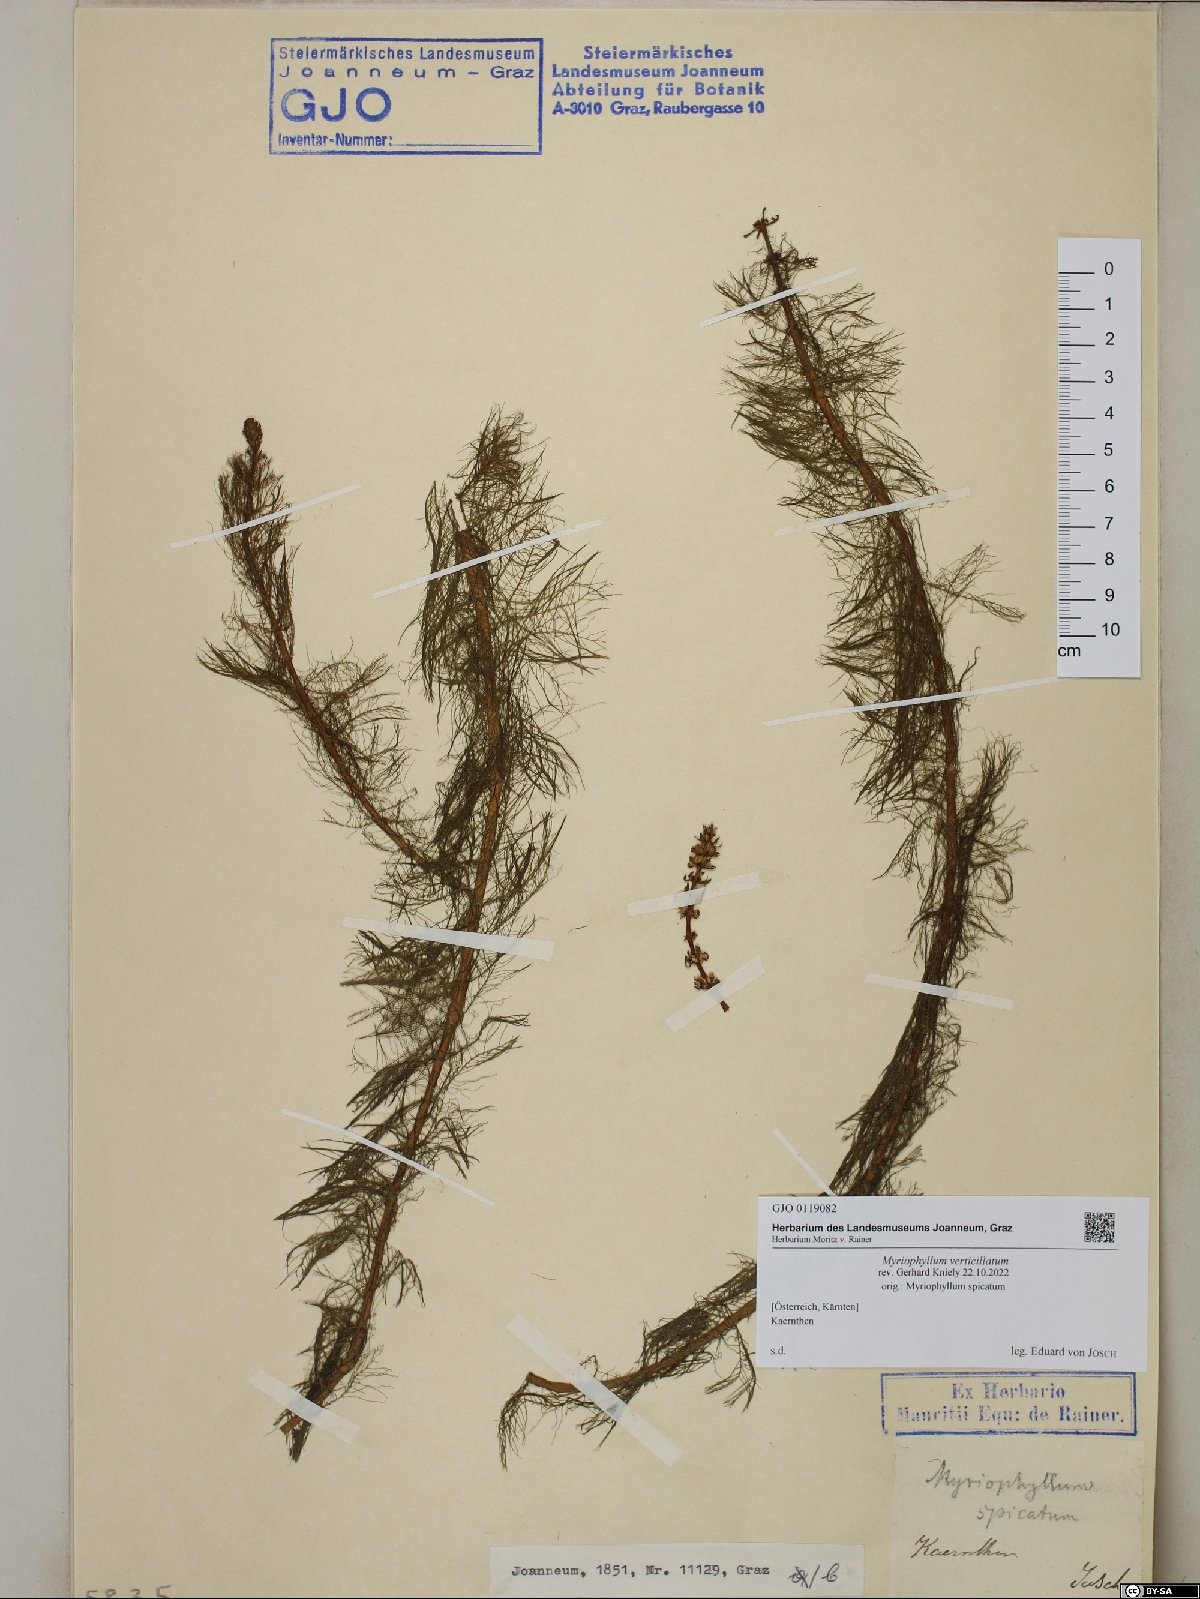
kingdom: Plantae
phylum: Tracheophyta
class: Magnoliopsida
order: Saxifragales
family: Haloragaceae
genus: Myriophyllum
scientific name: Myriophyllum verticillatum
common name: Whorled water-milfoil
